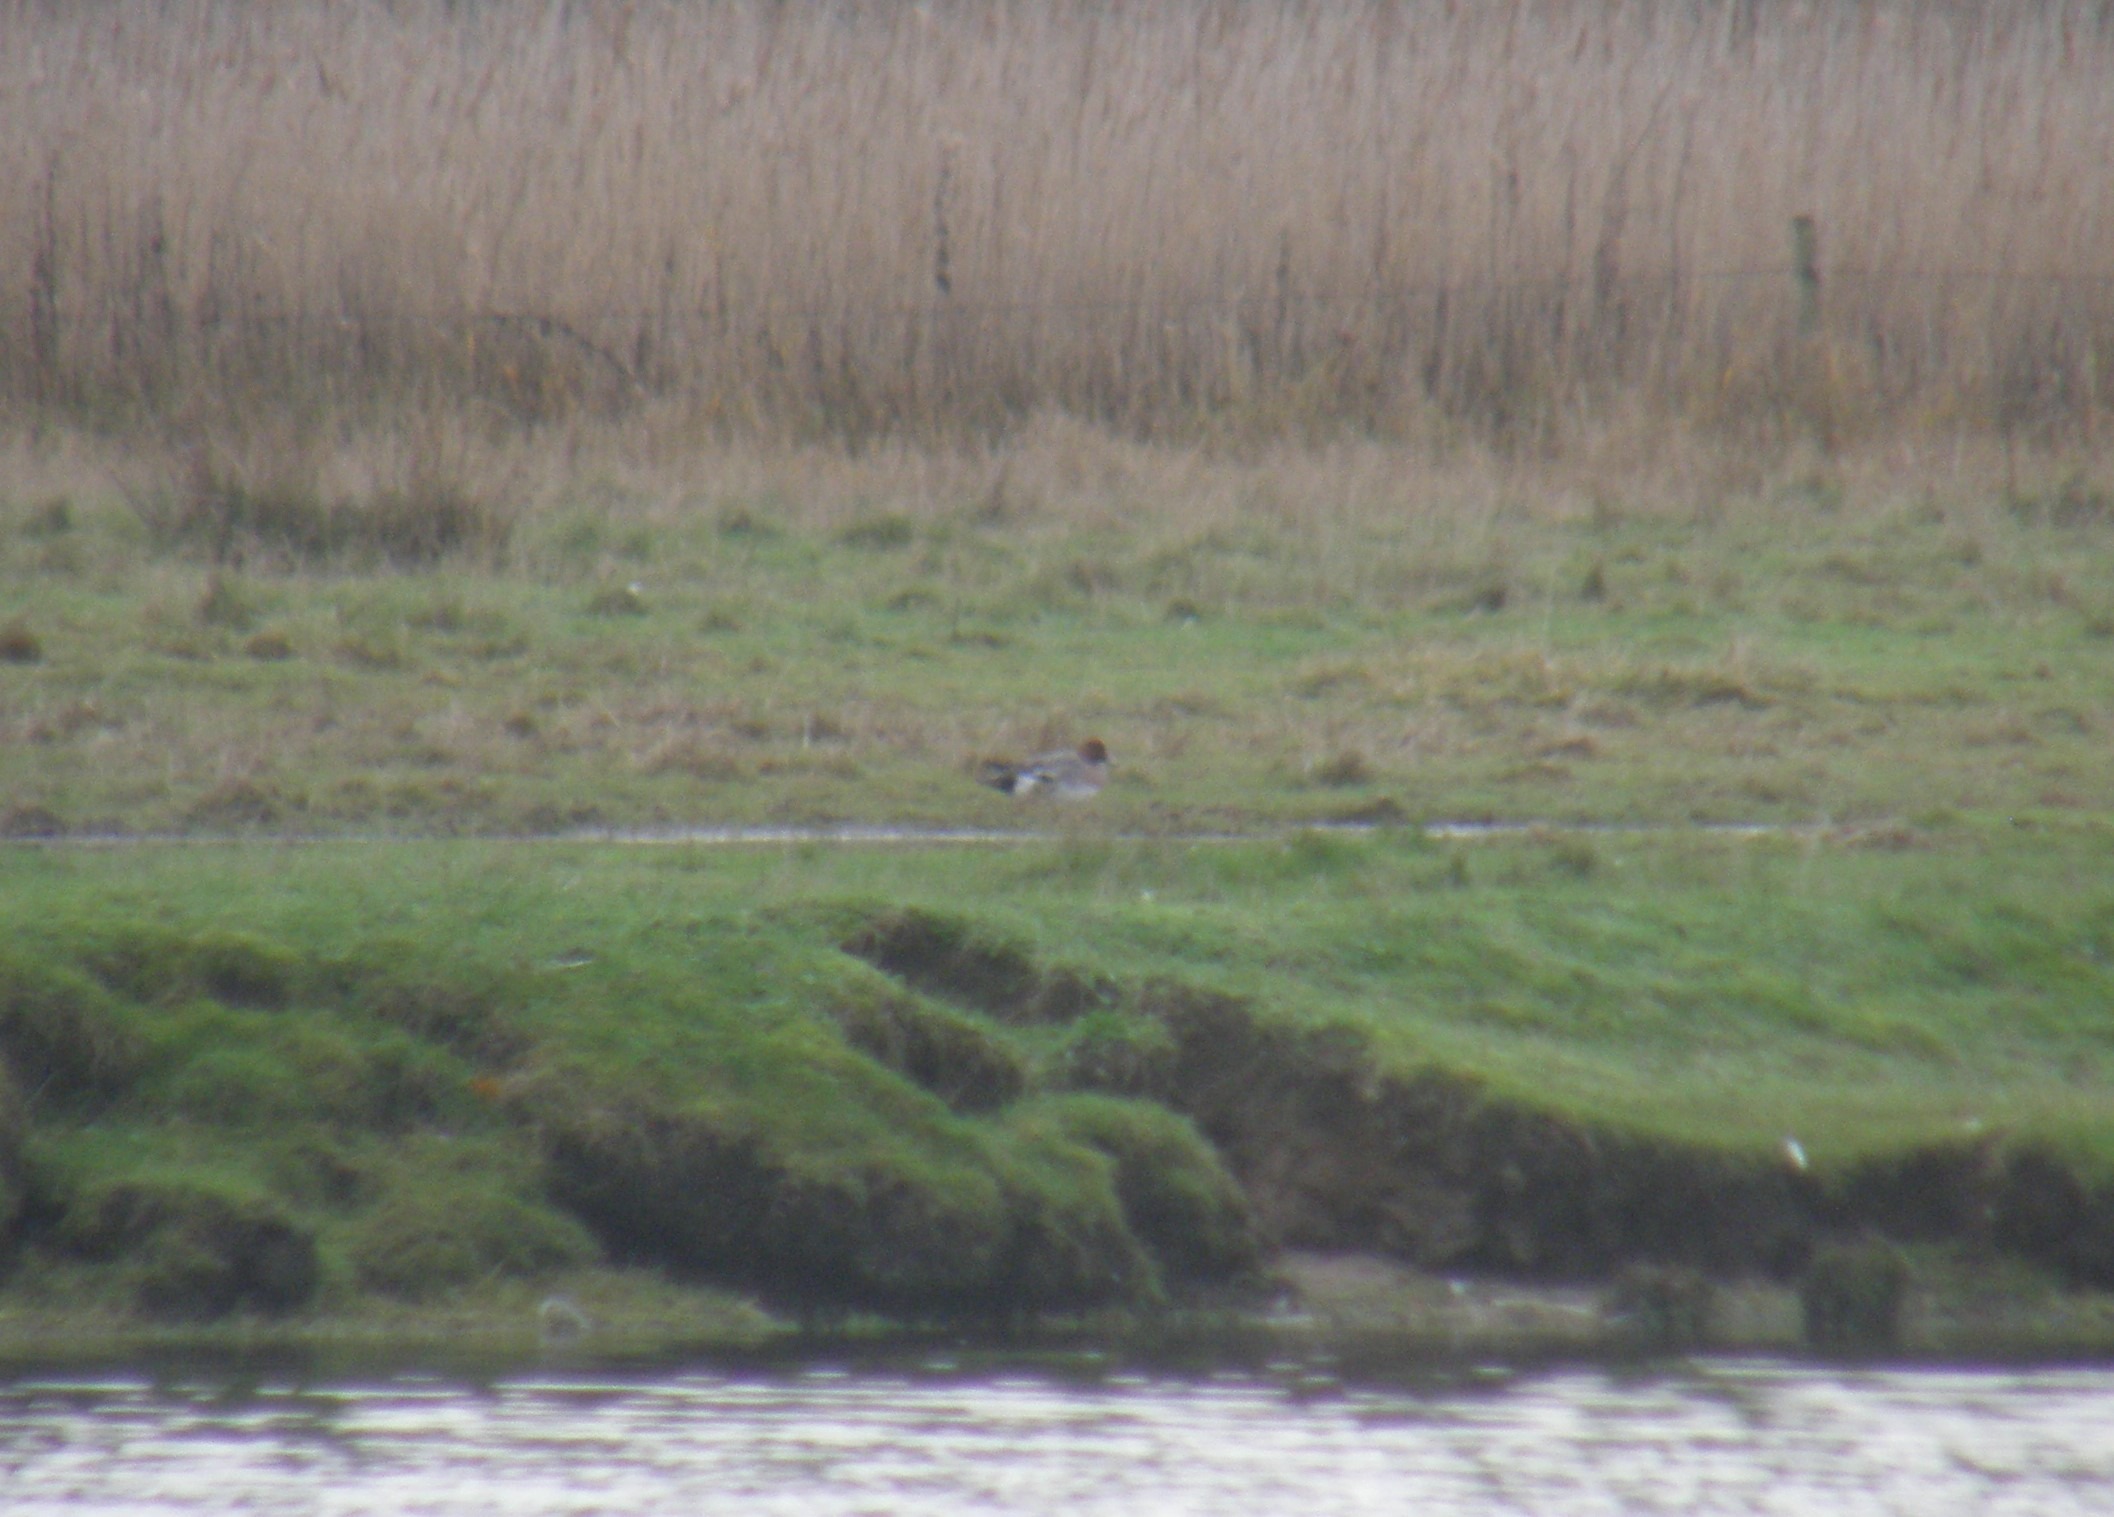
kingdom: Animalia
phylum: Chordata
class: Aves
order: Anseriformes
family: Anatidae
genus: Mareca
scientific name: Mareca penelope
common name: Pibeand
